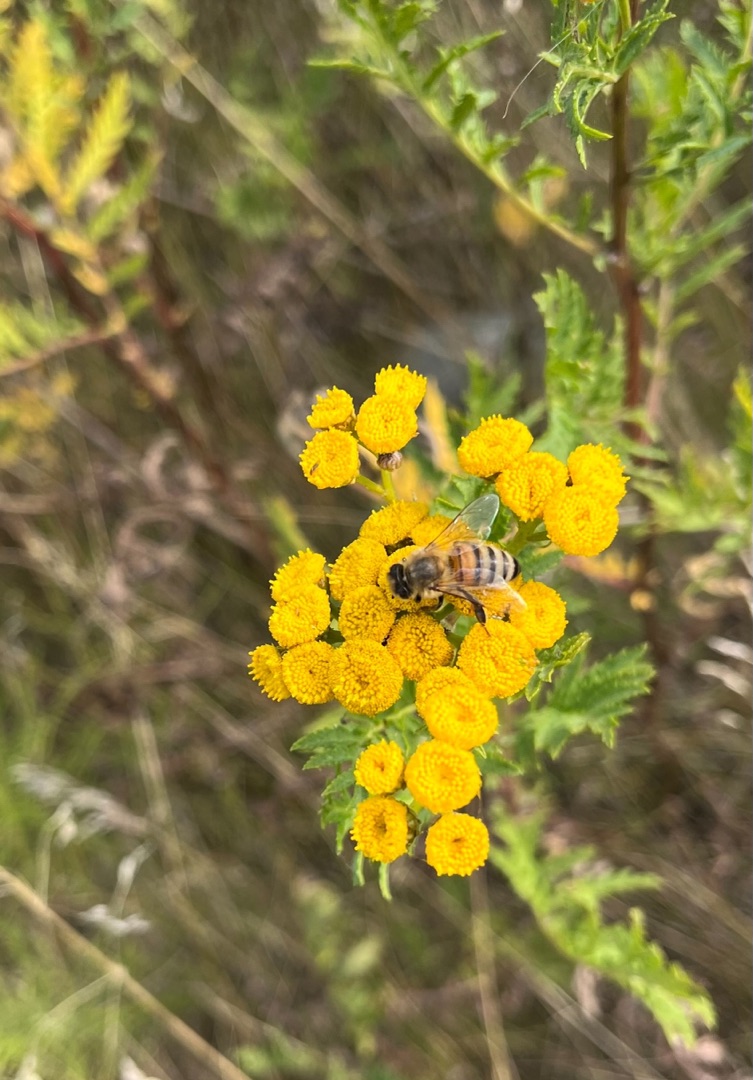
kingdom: Animalia
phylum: Arthropoda
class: Insecta
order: Hymenoptera
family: Apidae
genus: Apis
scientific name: Apis mellifera
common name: Honningbi
